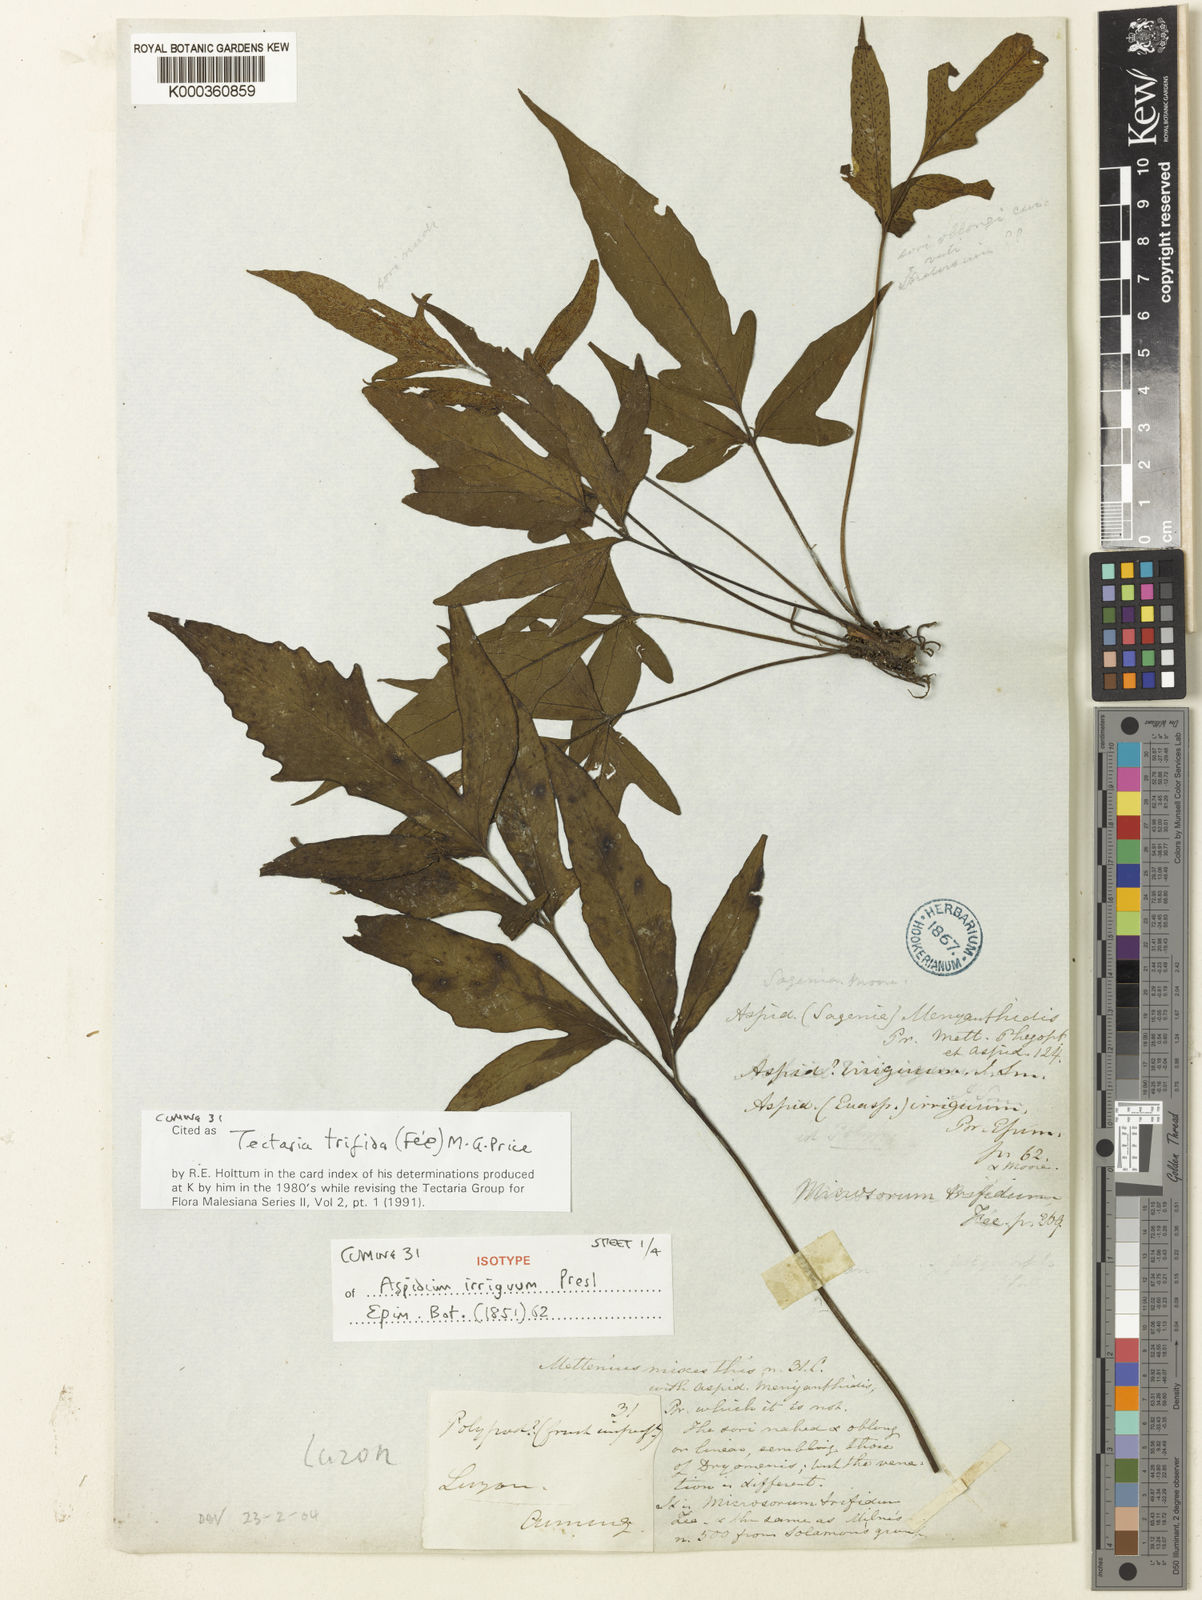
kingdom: Plantae
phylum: Tracheophyta
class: Polypodiopsida
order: Polypodiales
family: Tectariaceae
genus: Tectaria
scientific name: Tectaria
